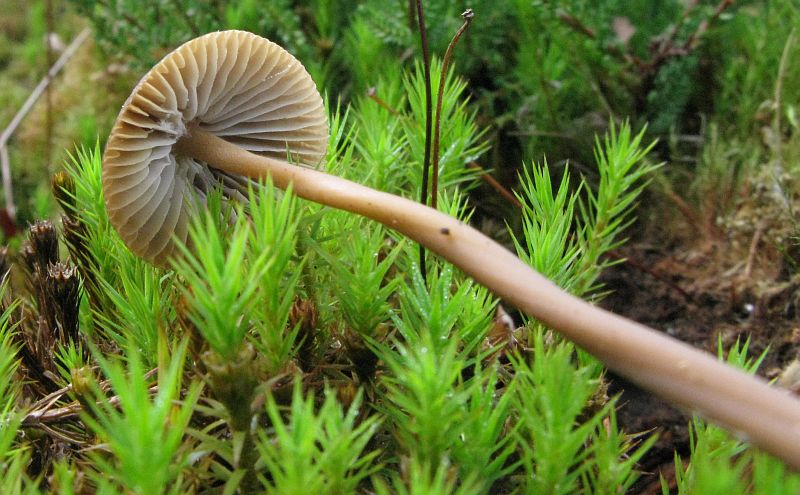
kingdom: Fungi
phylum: Basidiomycota
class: Agaricomycetes
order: Agaricales
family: Mycenaceae
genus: Mycena
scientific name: Mycena galericulata
